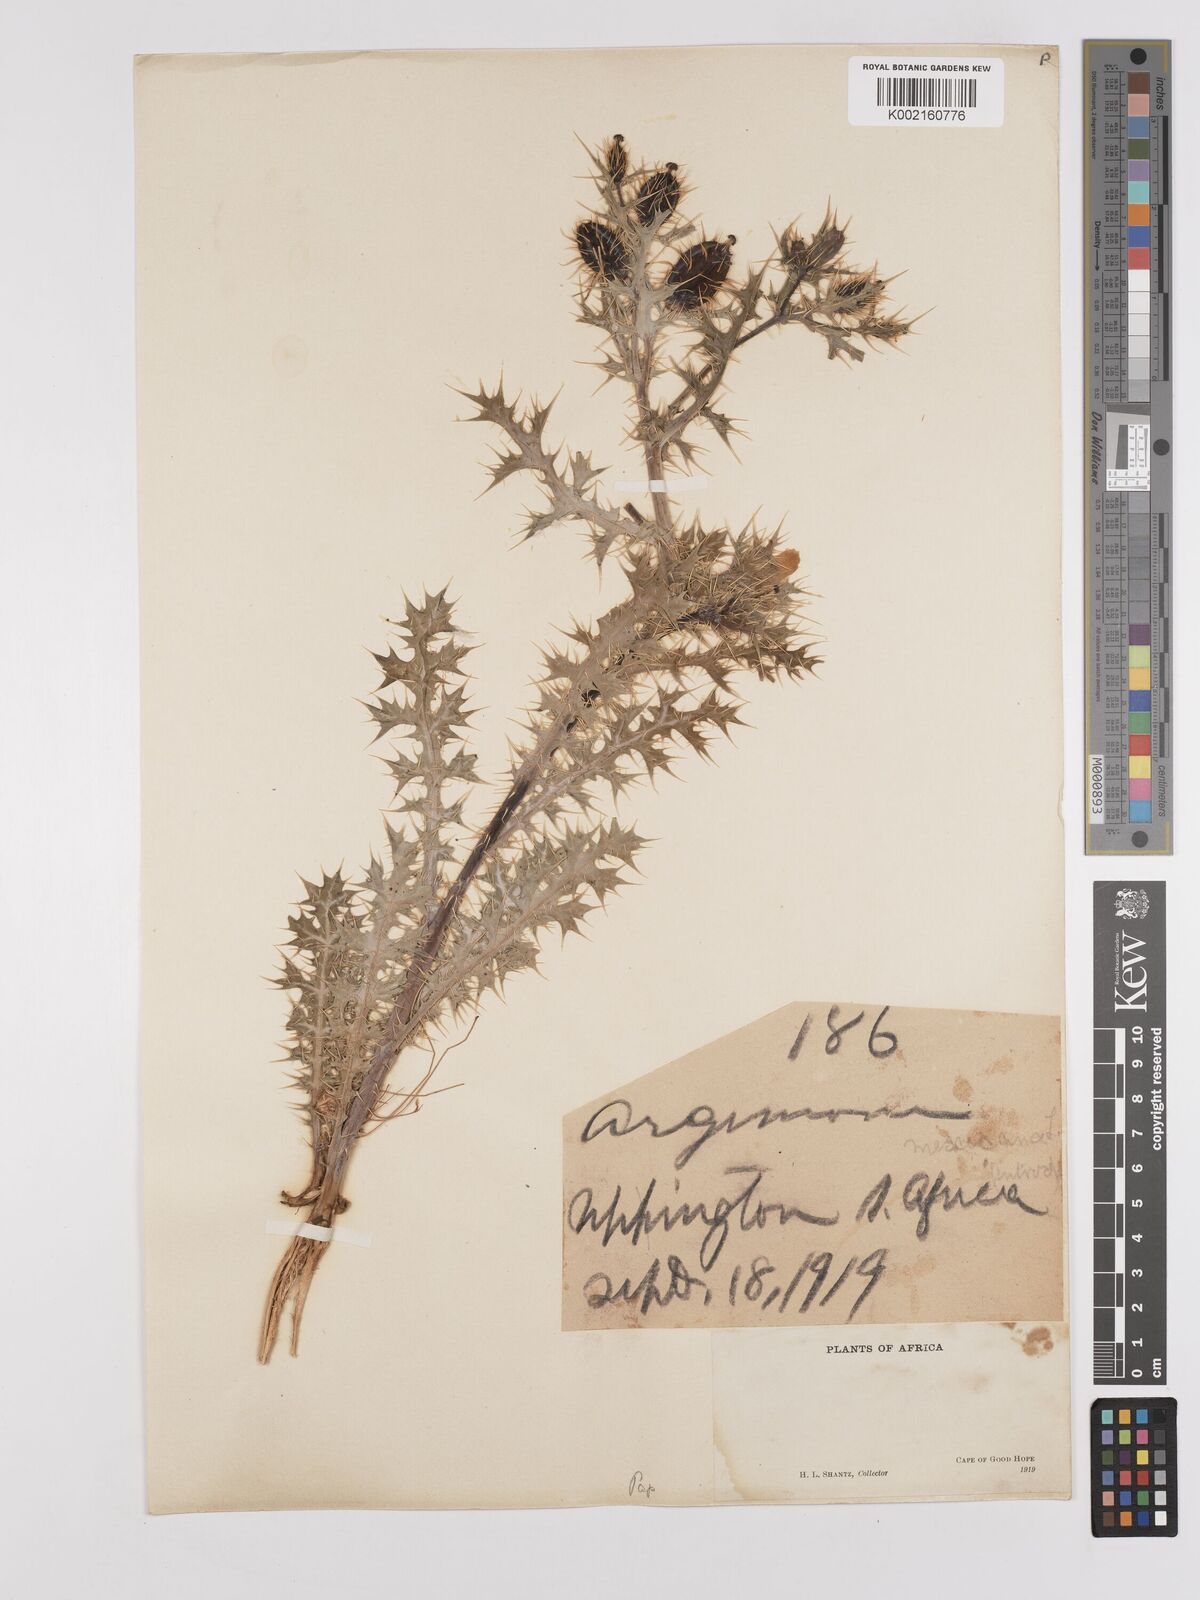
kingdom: Plantae
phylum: Tracheophyta
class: Magnoliopsida
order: Ranunculales
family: Papaveraceae
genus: Argemone
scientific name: Argemone mexicana
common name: Mexican poppy
